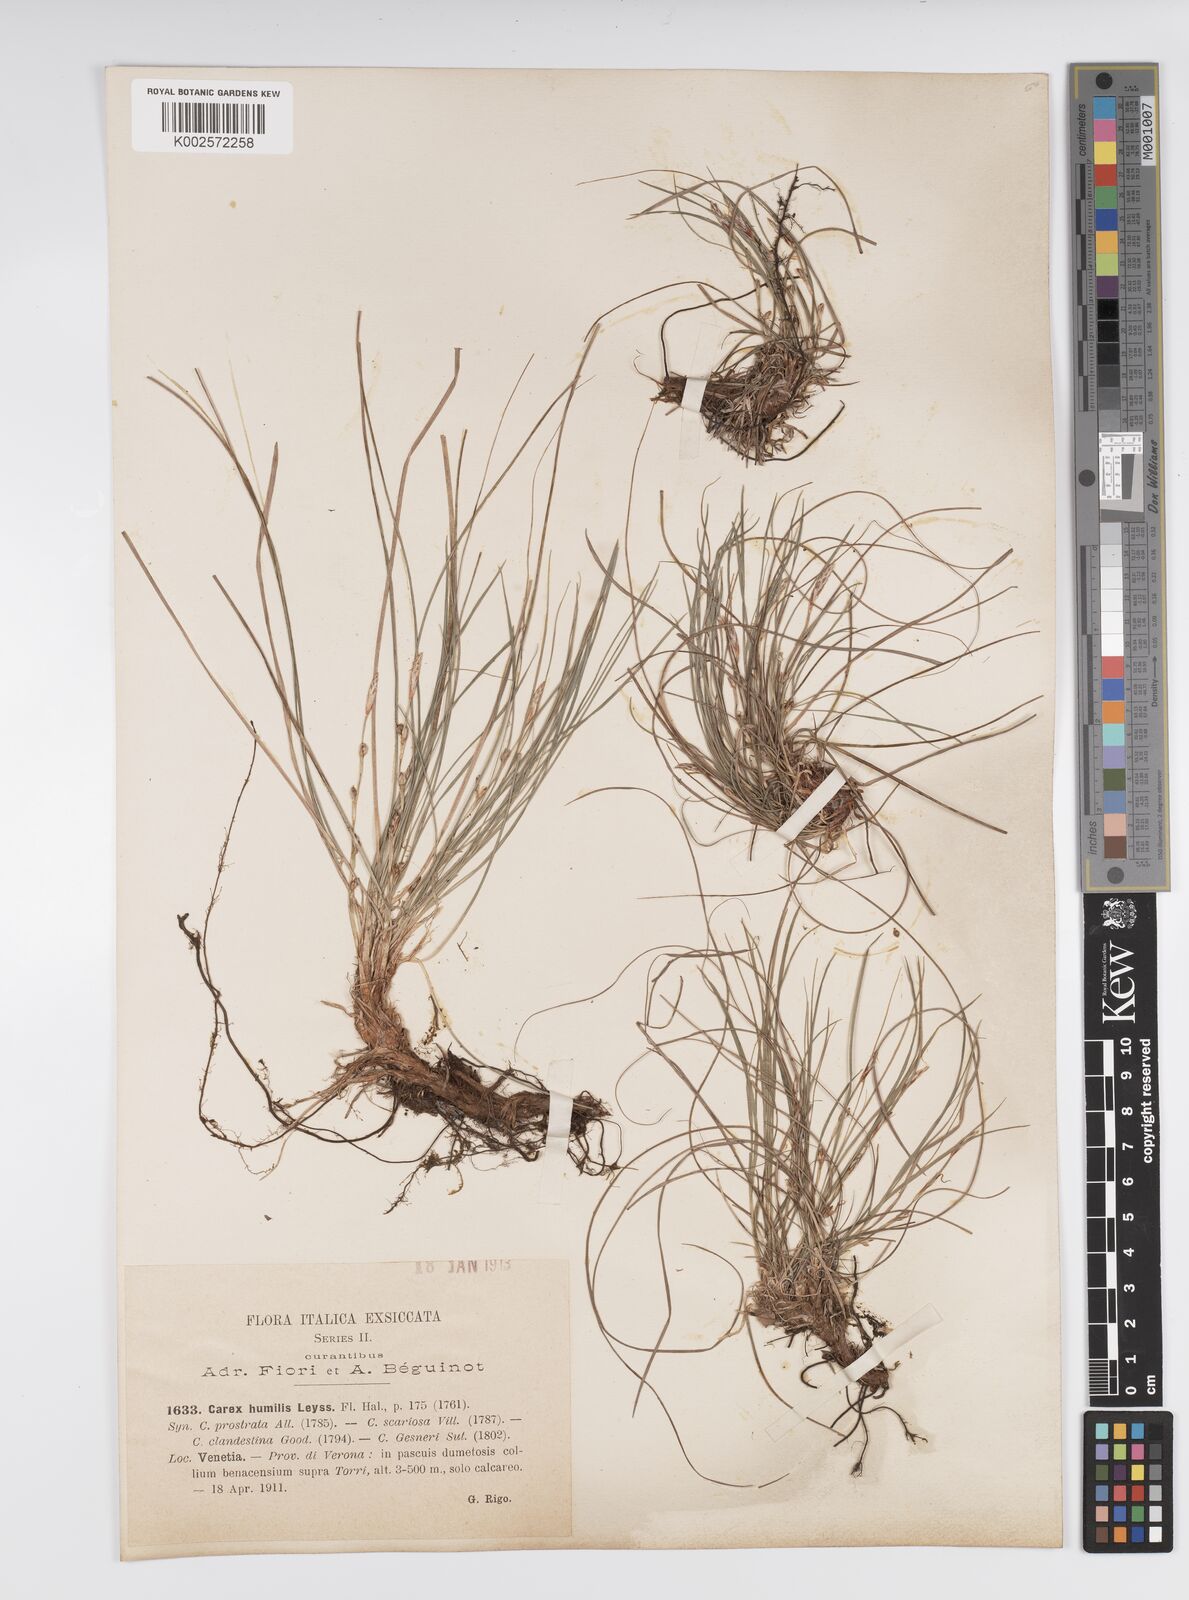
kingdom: Plantae
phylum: Tracheophyta
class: Liliopsida
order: Poales
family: Cyperaceae
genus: Carex
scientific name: Carex humilis
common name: Dwarf sedge
